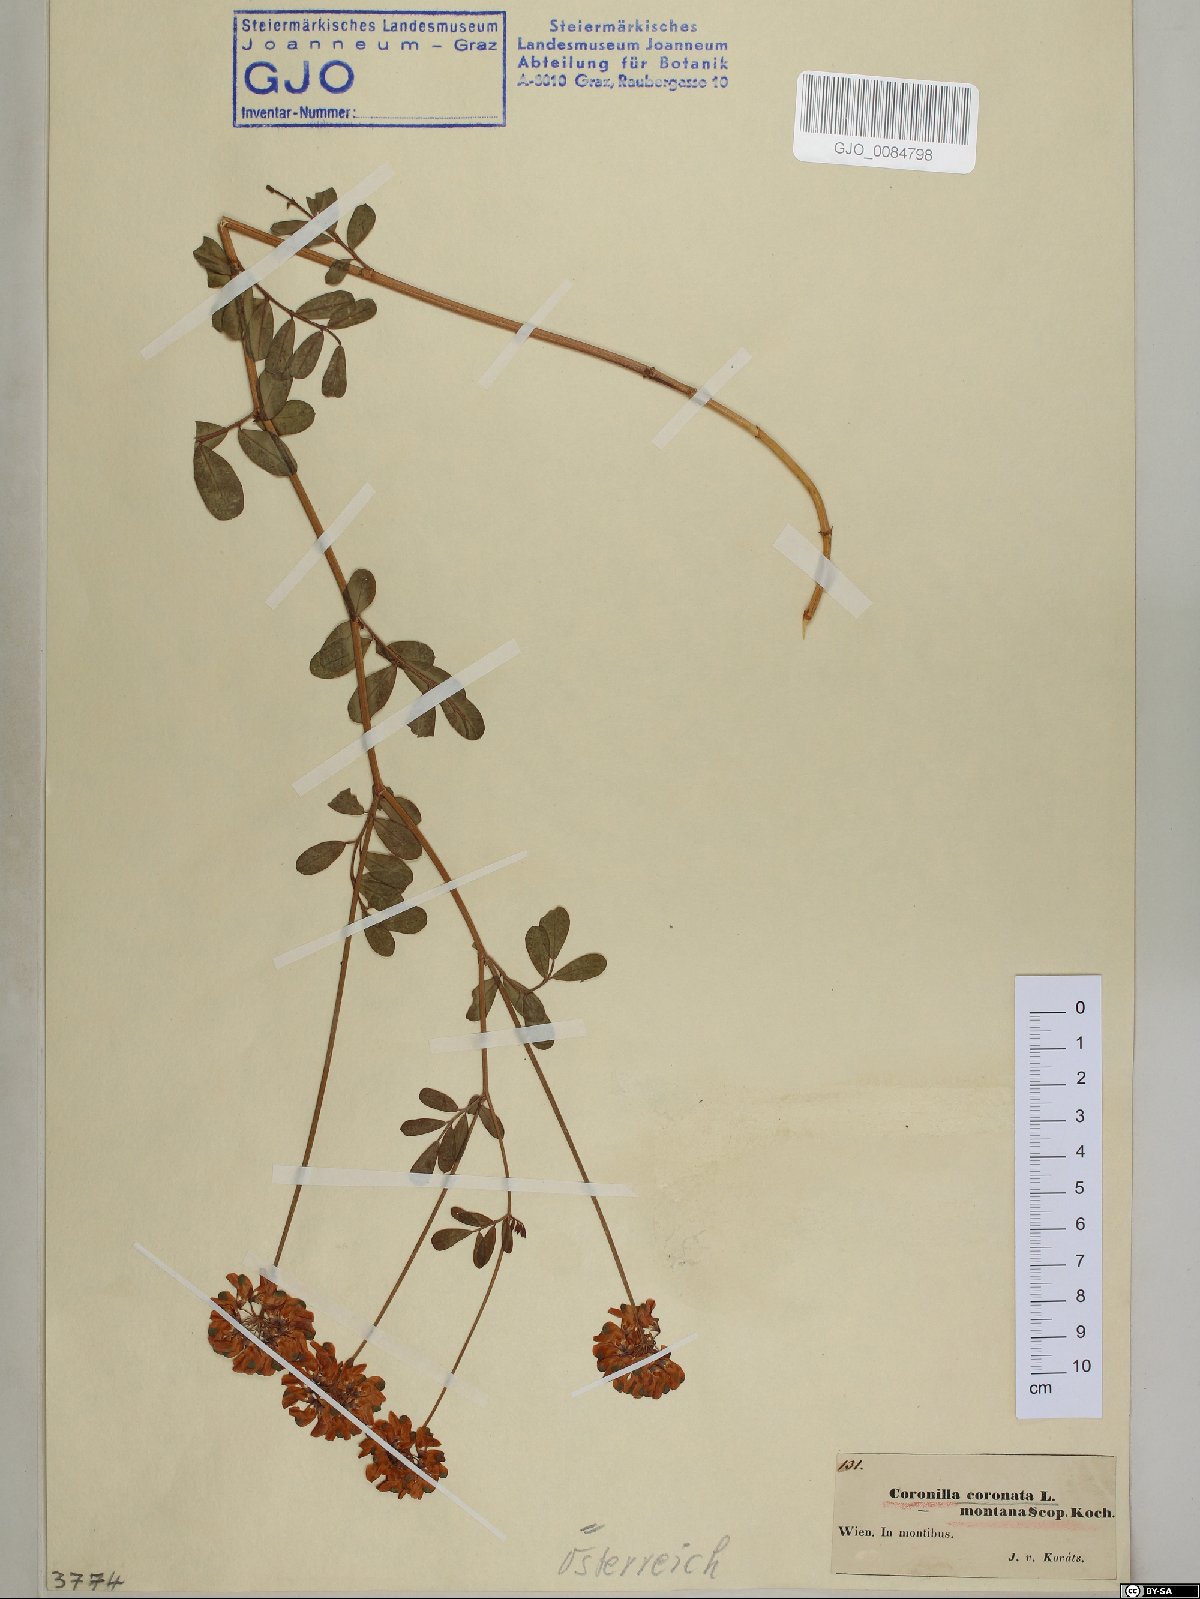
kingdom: Plantae
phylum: Tracheophyta
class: Magnoliopsida
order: Fabales
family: Fabaceae
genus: Coronilla
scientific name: Coronilla coronata
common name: Scorpion-vetch
